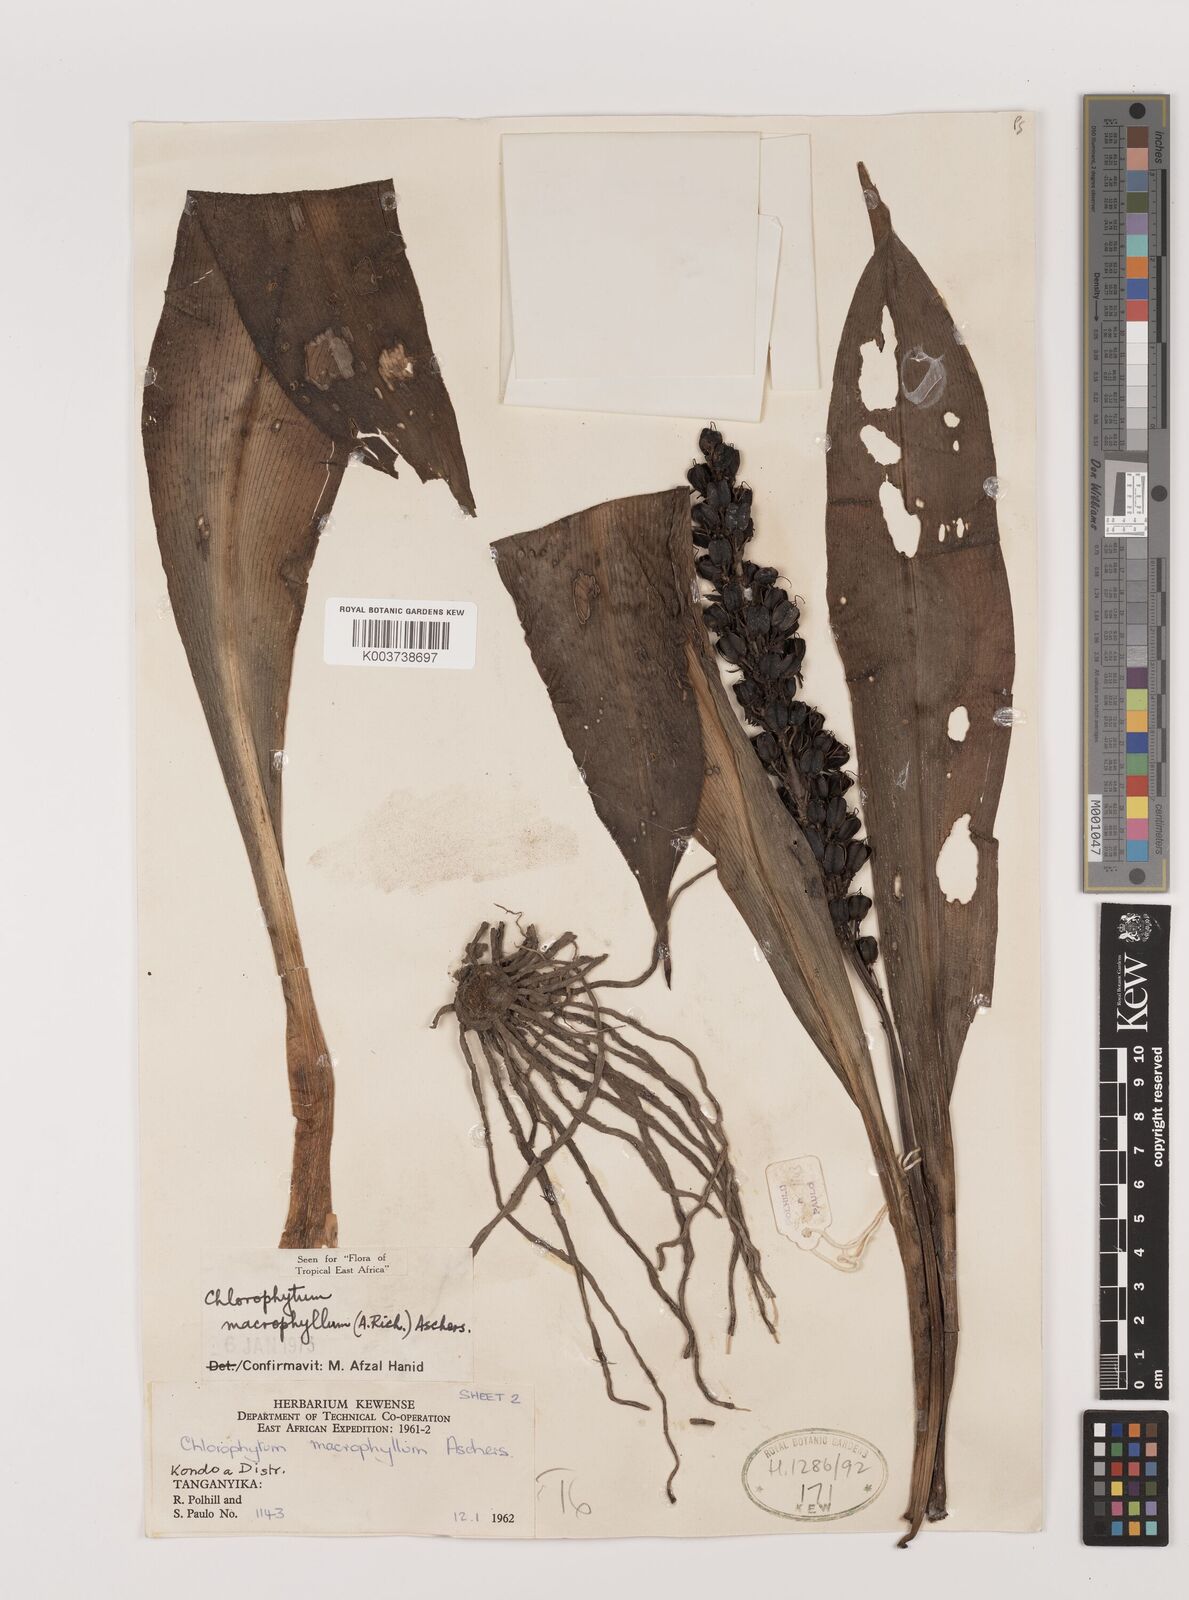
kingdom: Plantae
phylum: Tracheophyta
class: Liliopsida
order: Asparagales
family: Asparagaceae
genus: Chlorophytum
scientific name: Chlorophytum macrophyllum
